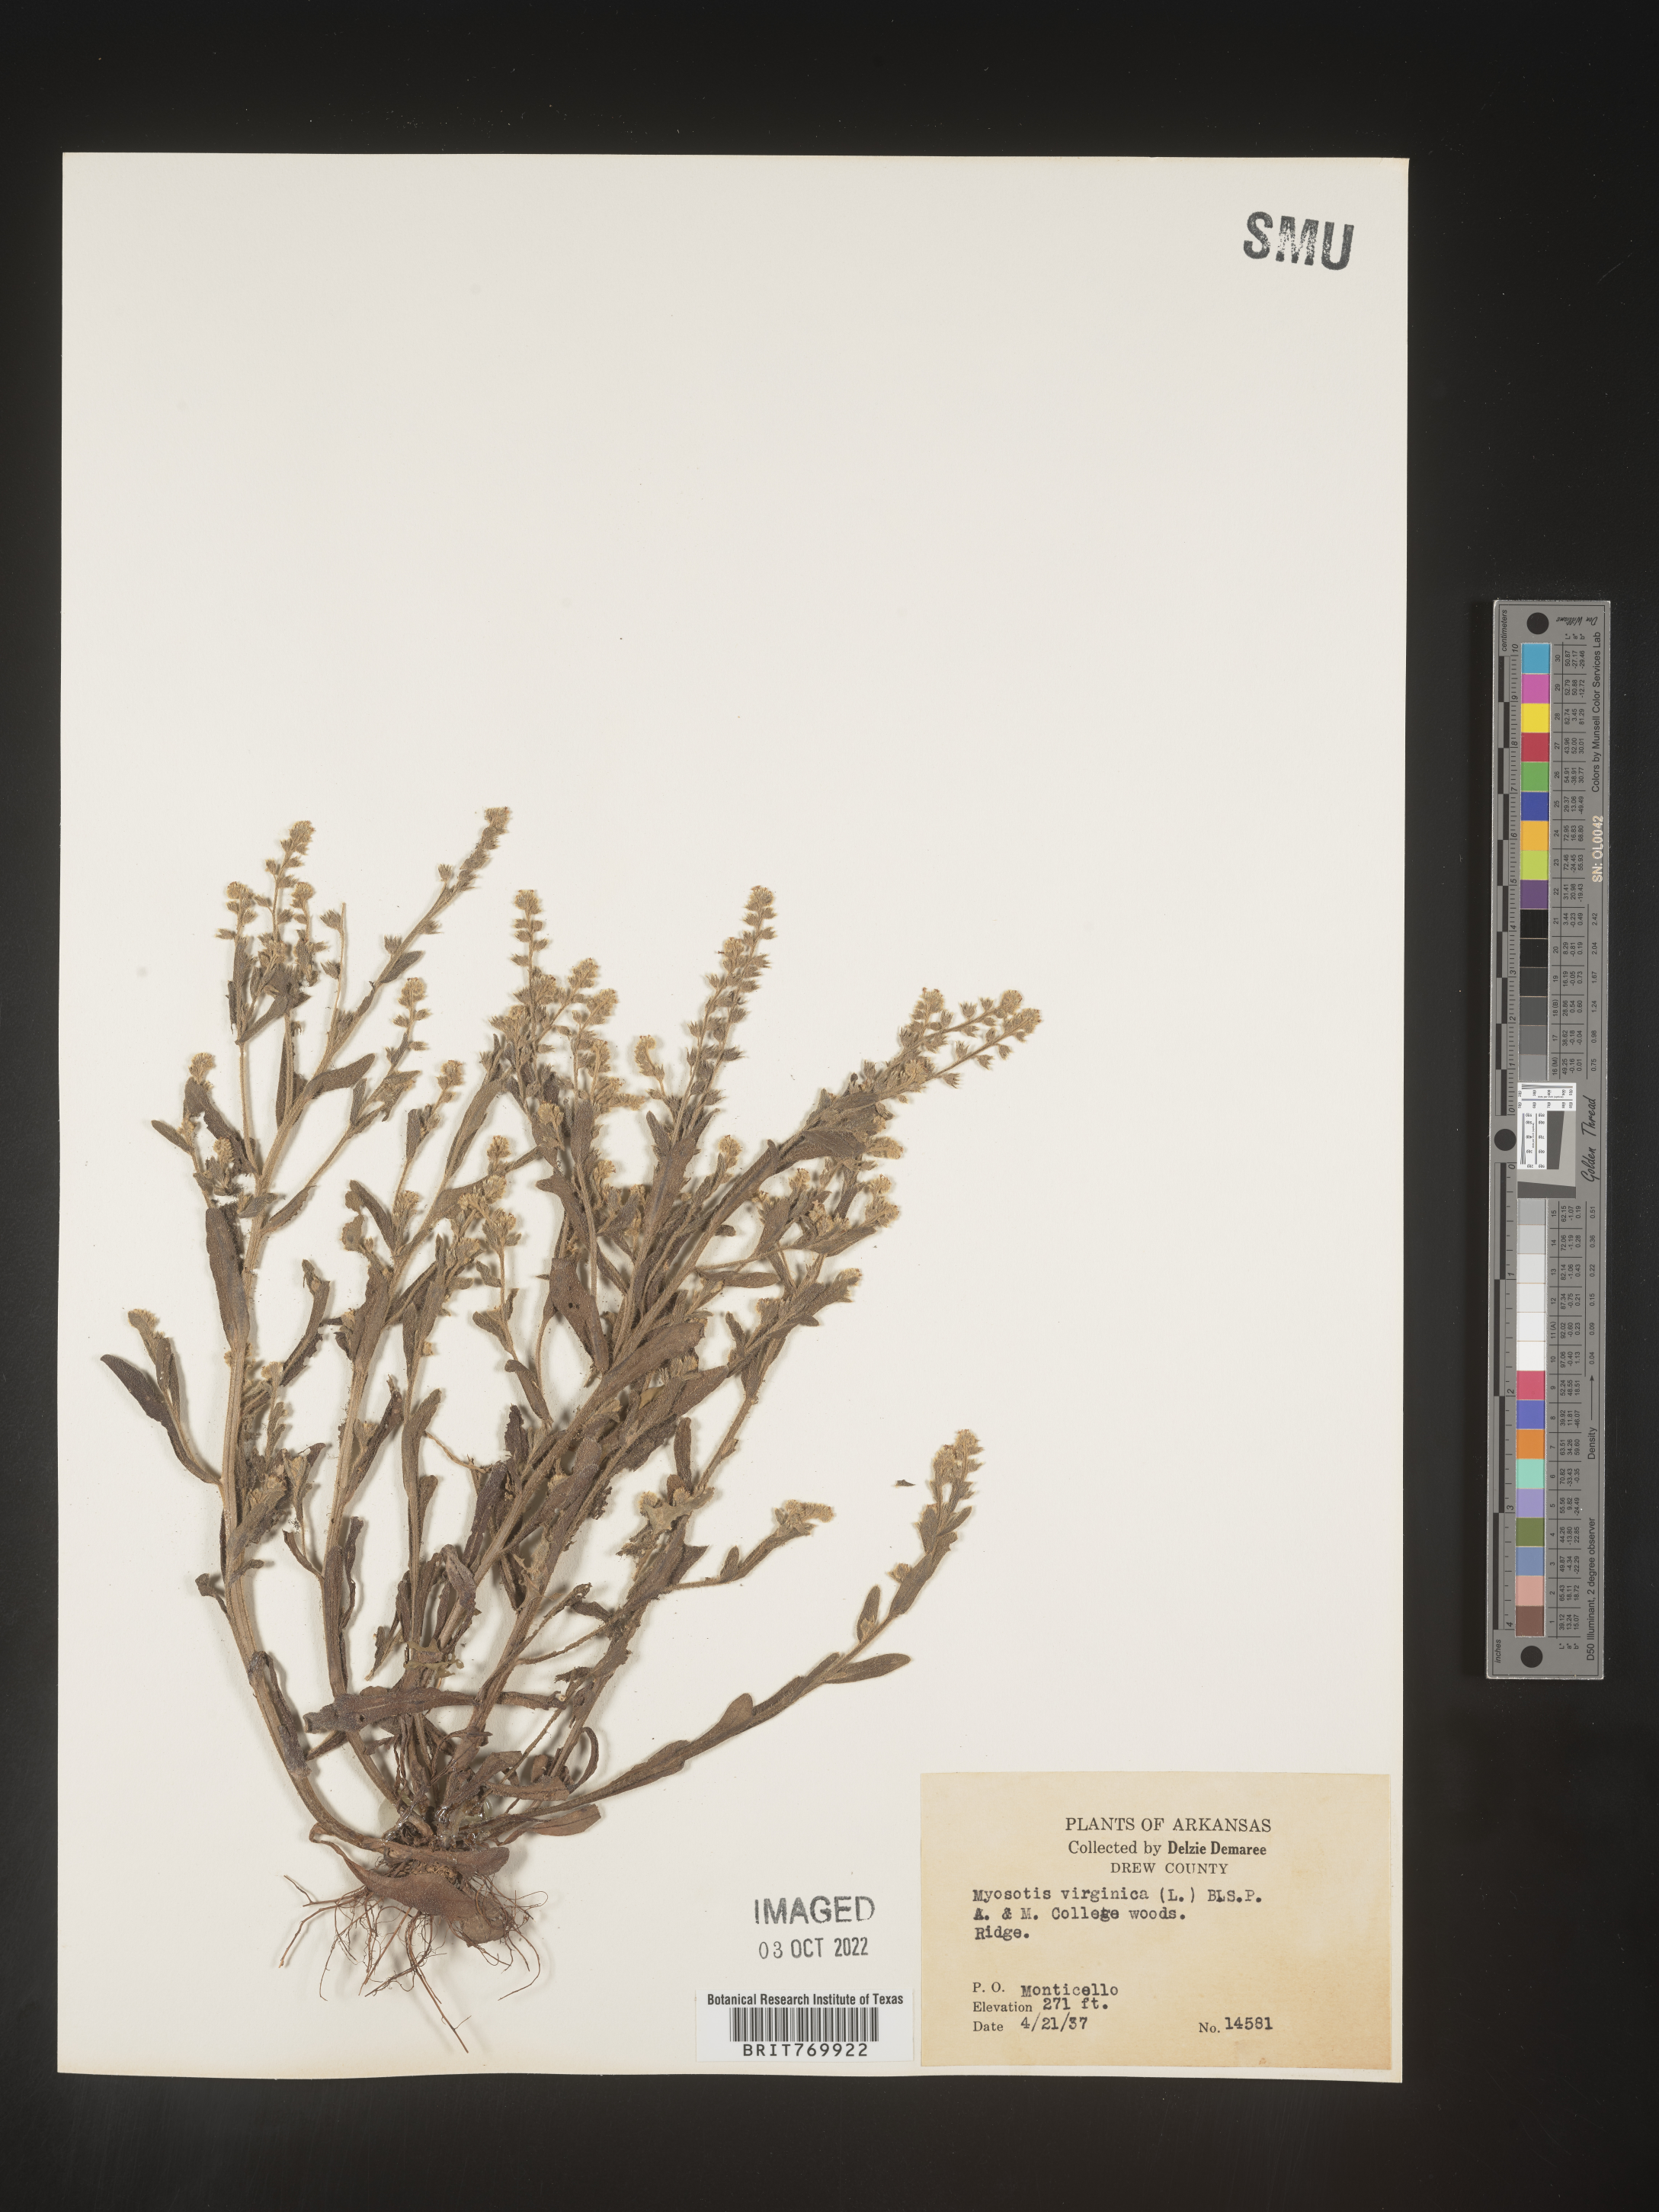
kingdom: Plantae
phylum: Tracheophyta
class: Magnoliopsida
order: Boraginales
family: Boraginaceae
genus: Myosotis
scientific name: Myosotis verna
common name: Early forget-me-not
